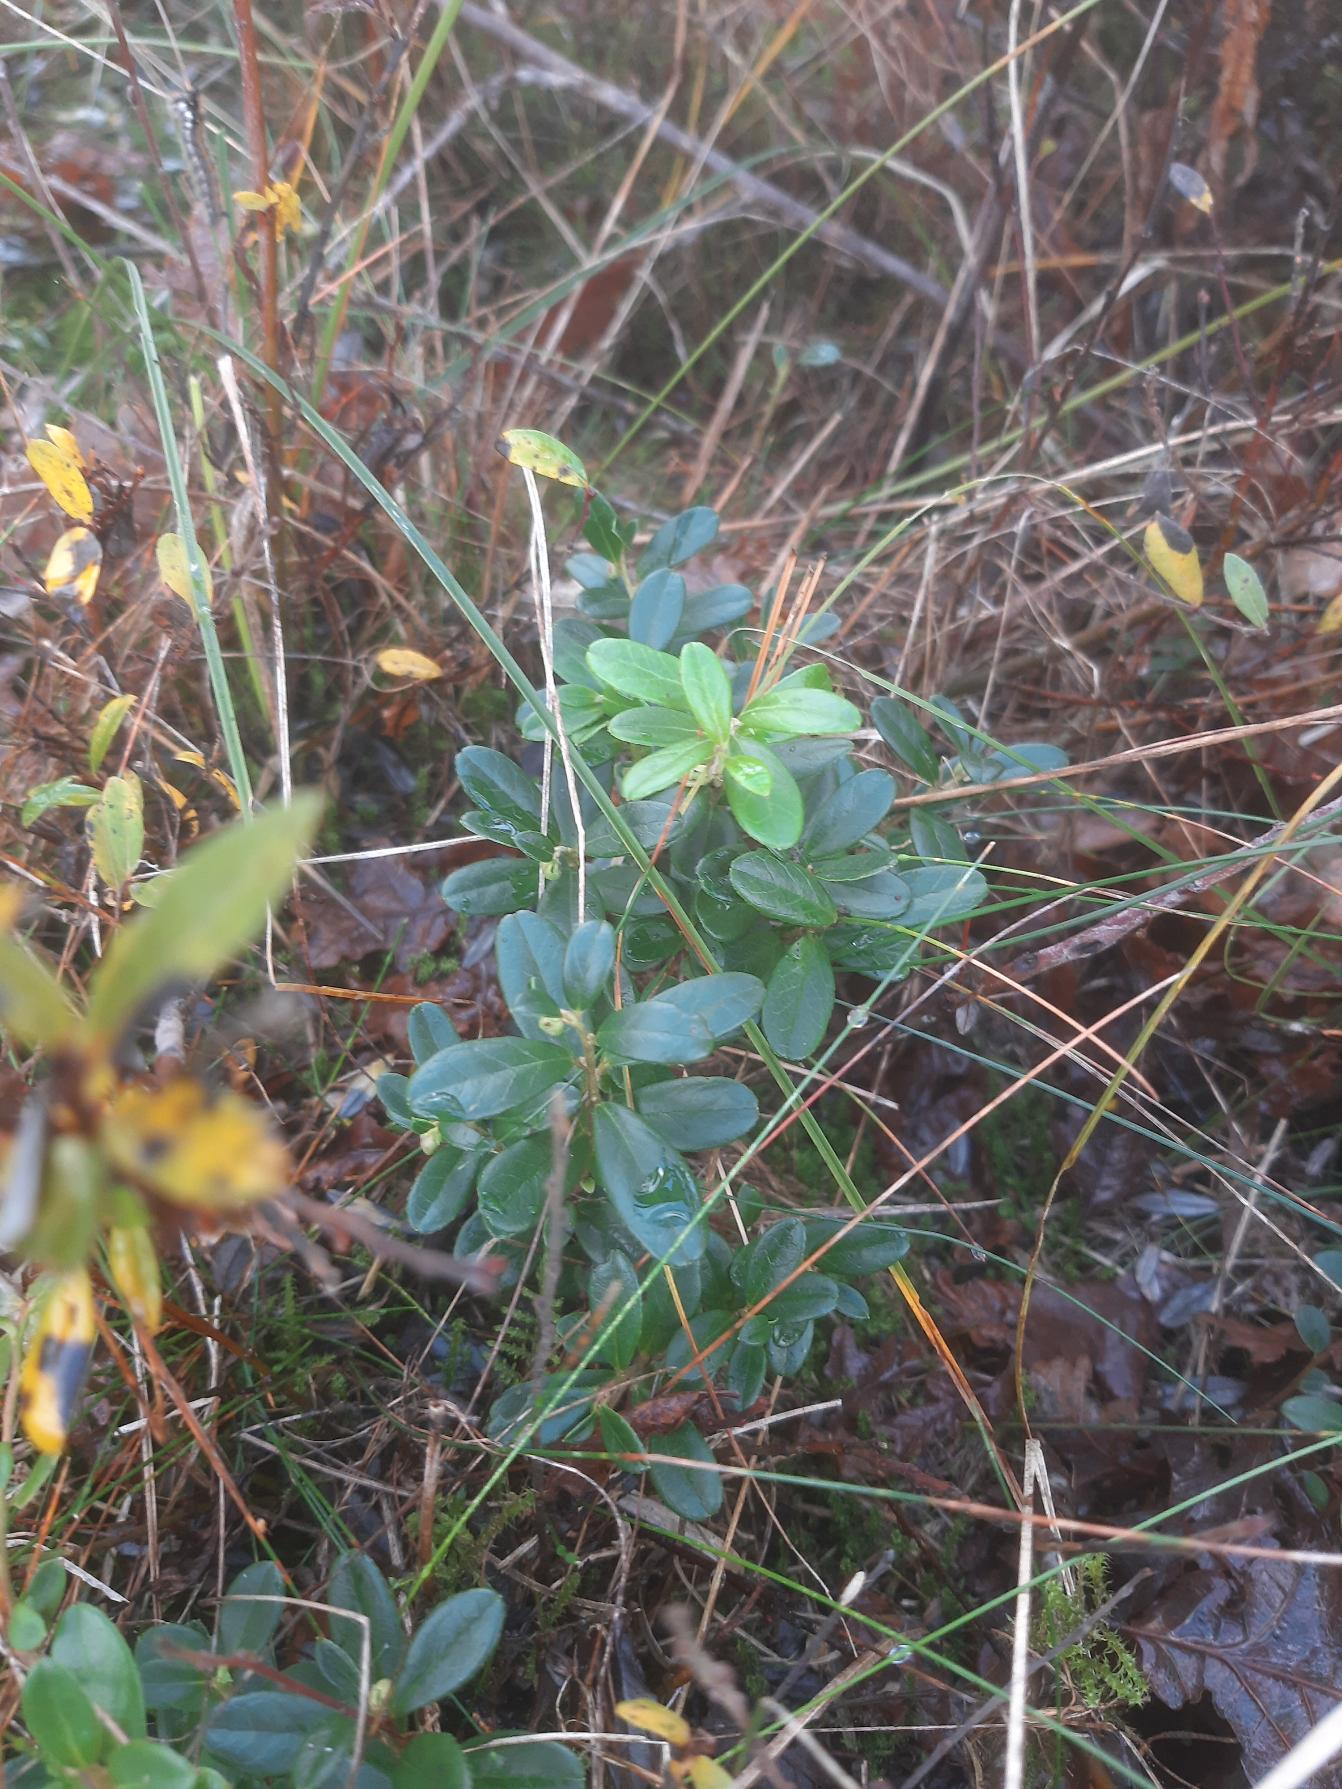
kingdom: Plantae
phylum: Tracheophyta
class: Magnoliopsida
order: Ericales
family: Ericaceae
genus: Vaccinium
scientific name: Vaccinium vitis-idaea
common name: Tyttebær
